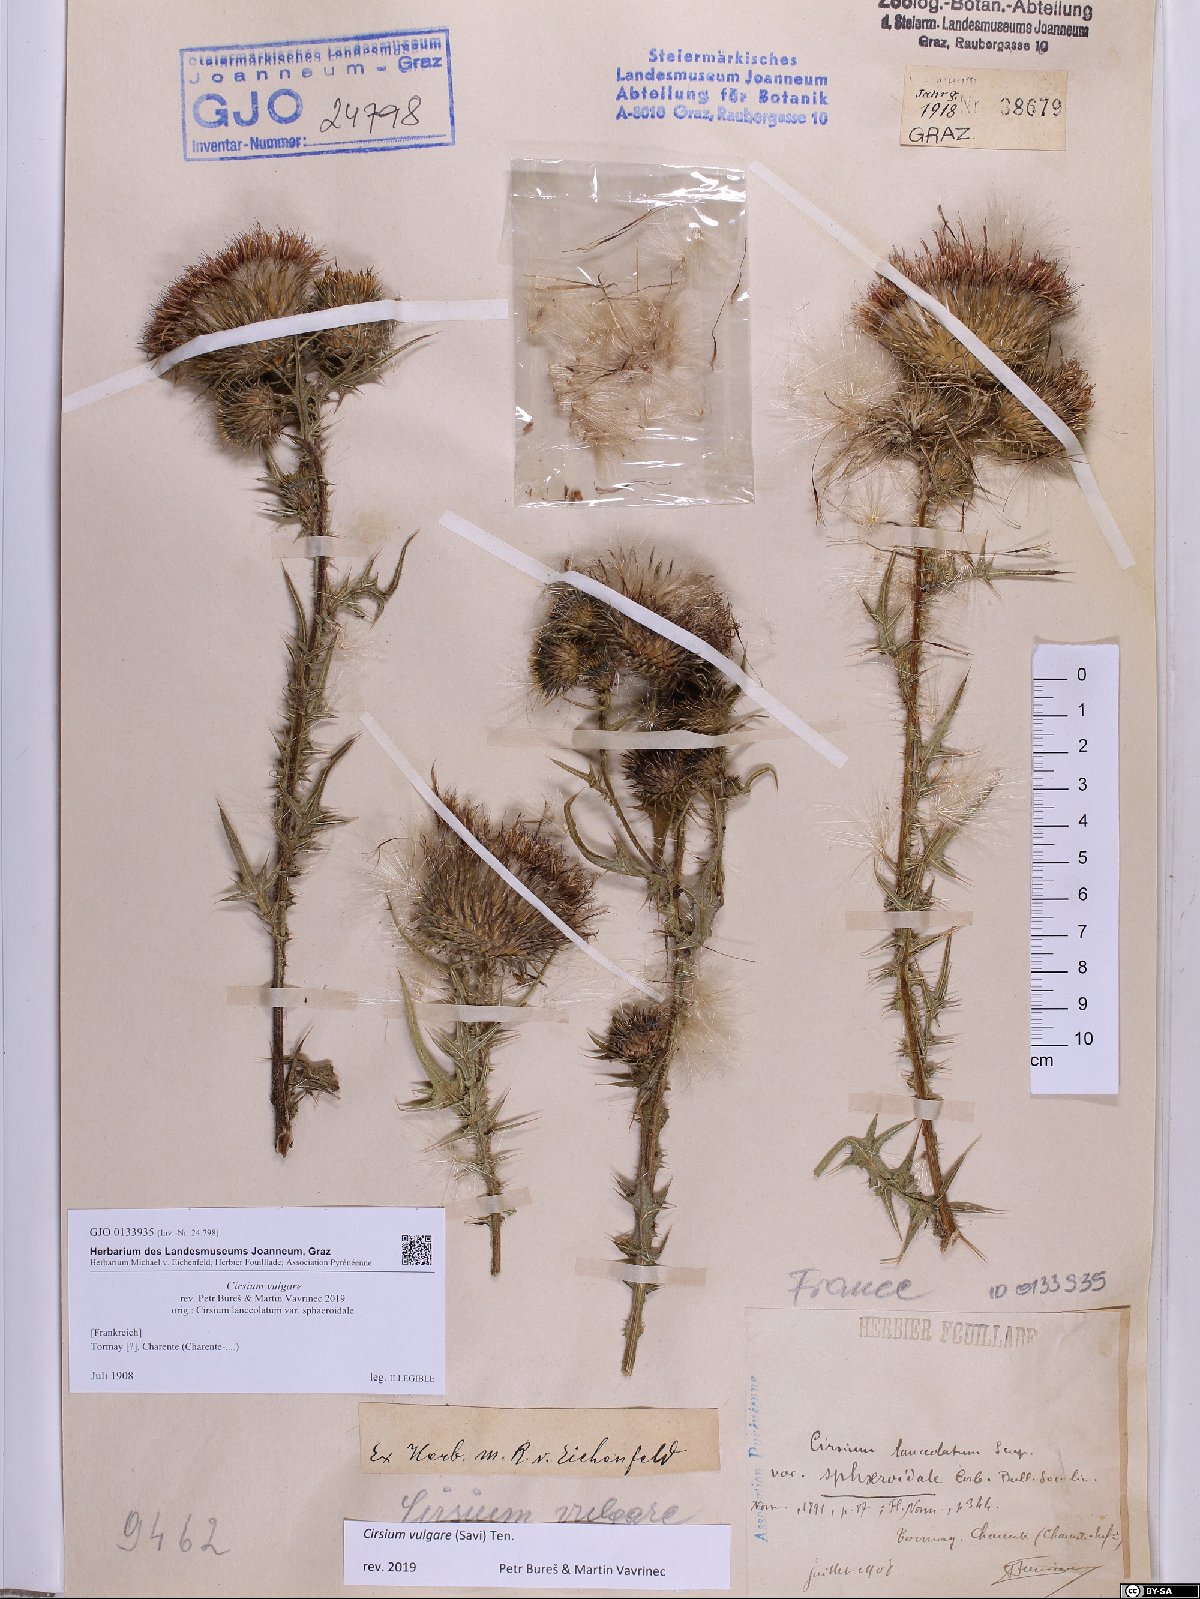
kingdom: Plantae
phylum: Tracheophyta
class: Magnoliopsida
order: Asterales
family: Asteraceae
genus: Cirsium
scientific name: Cirsium vulgare
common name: Bull thistle
